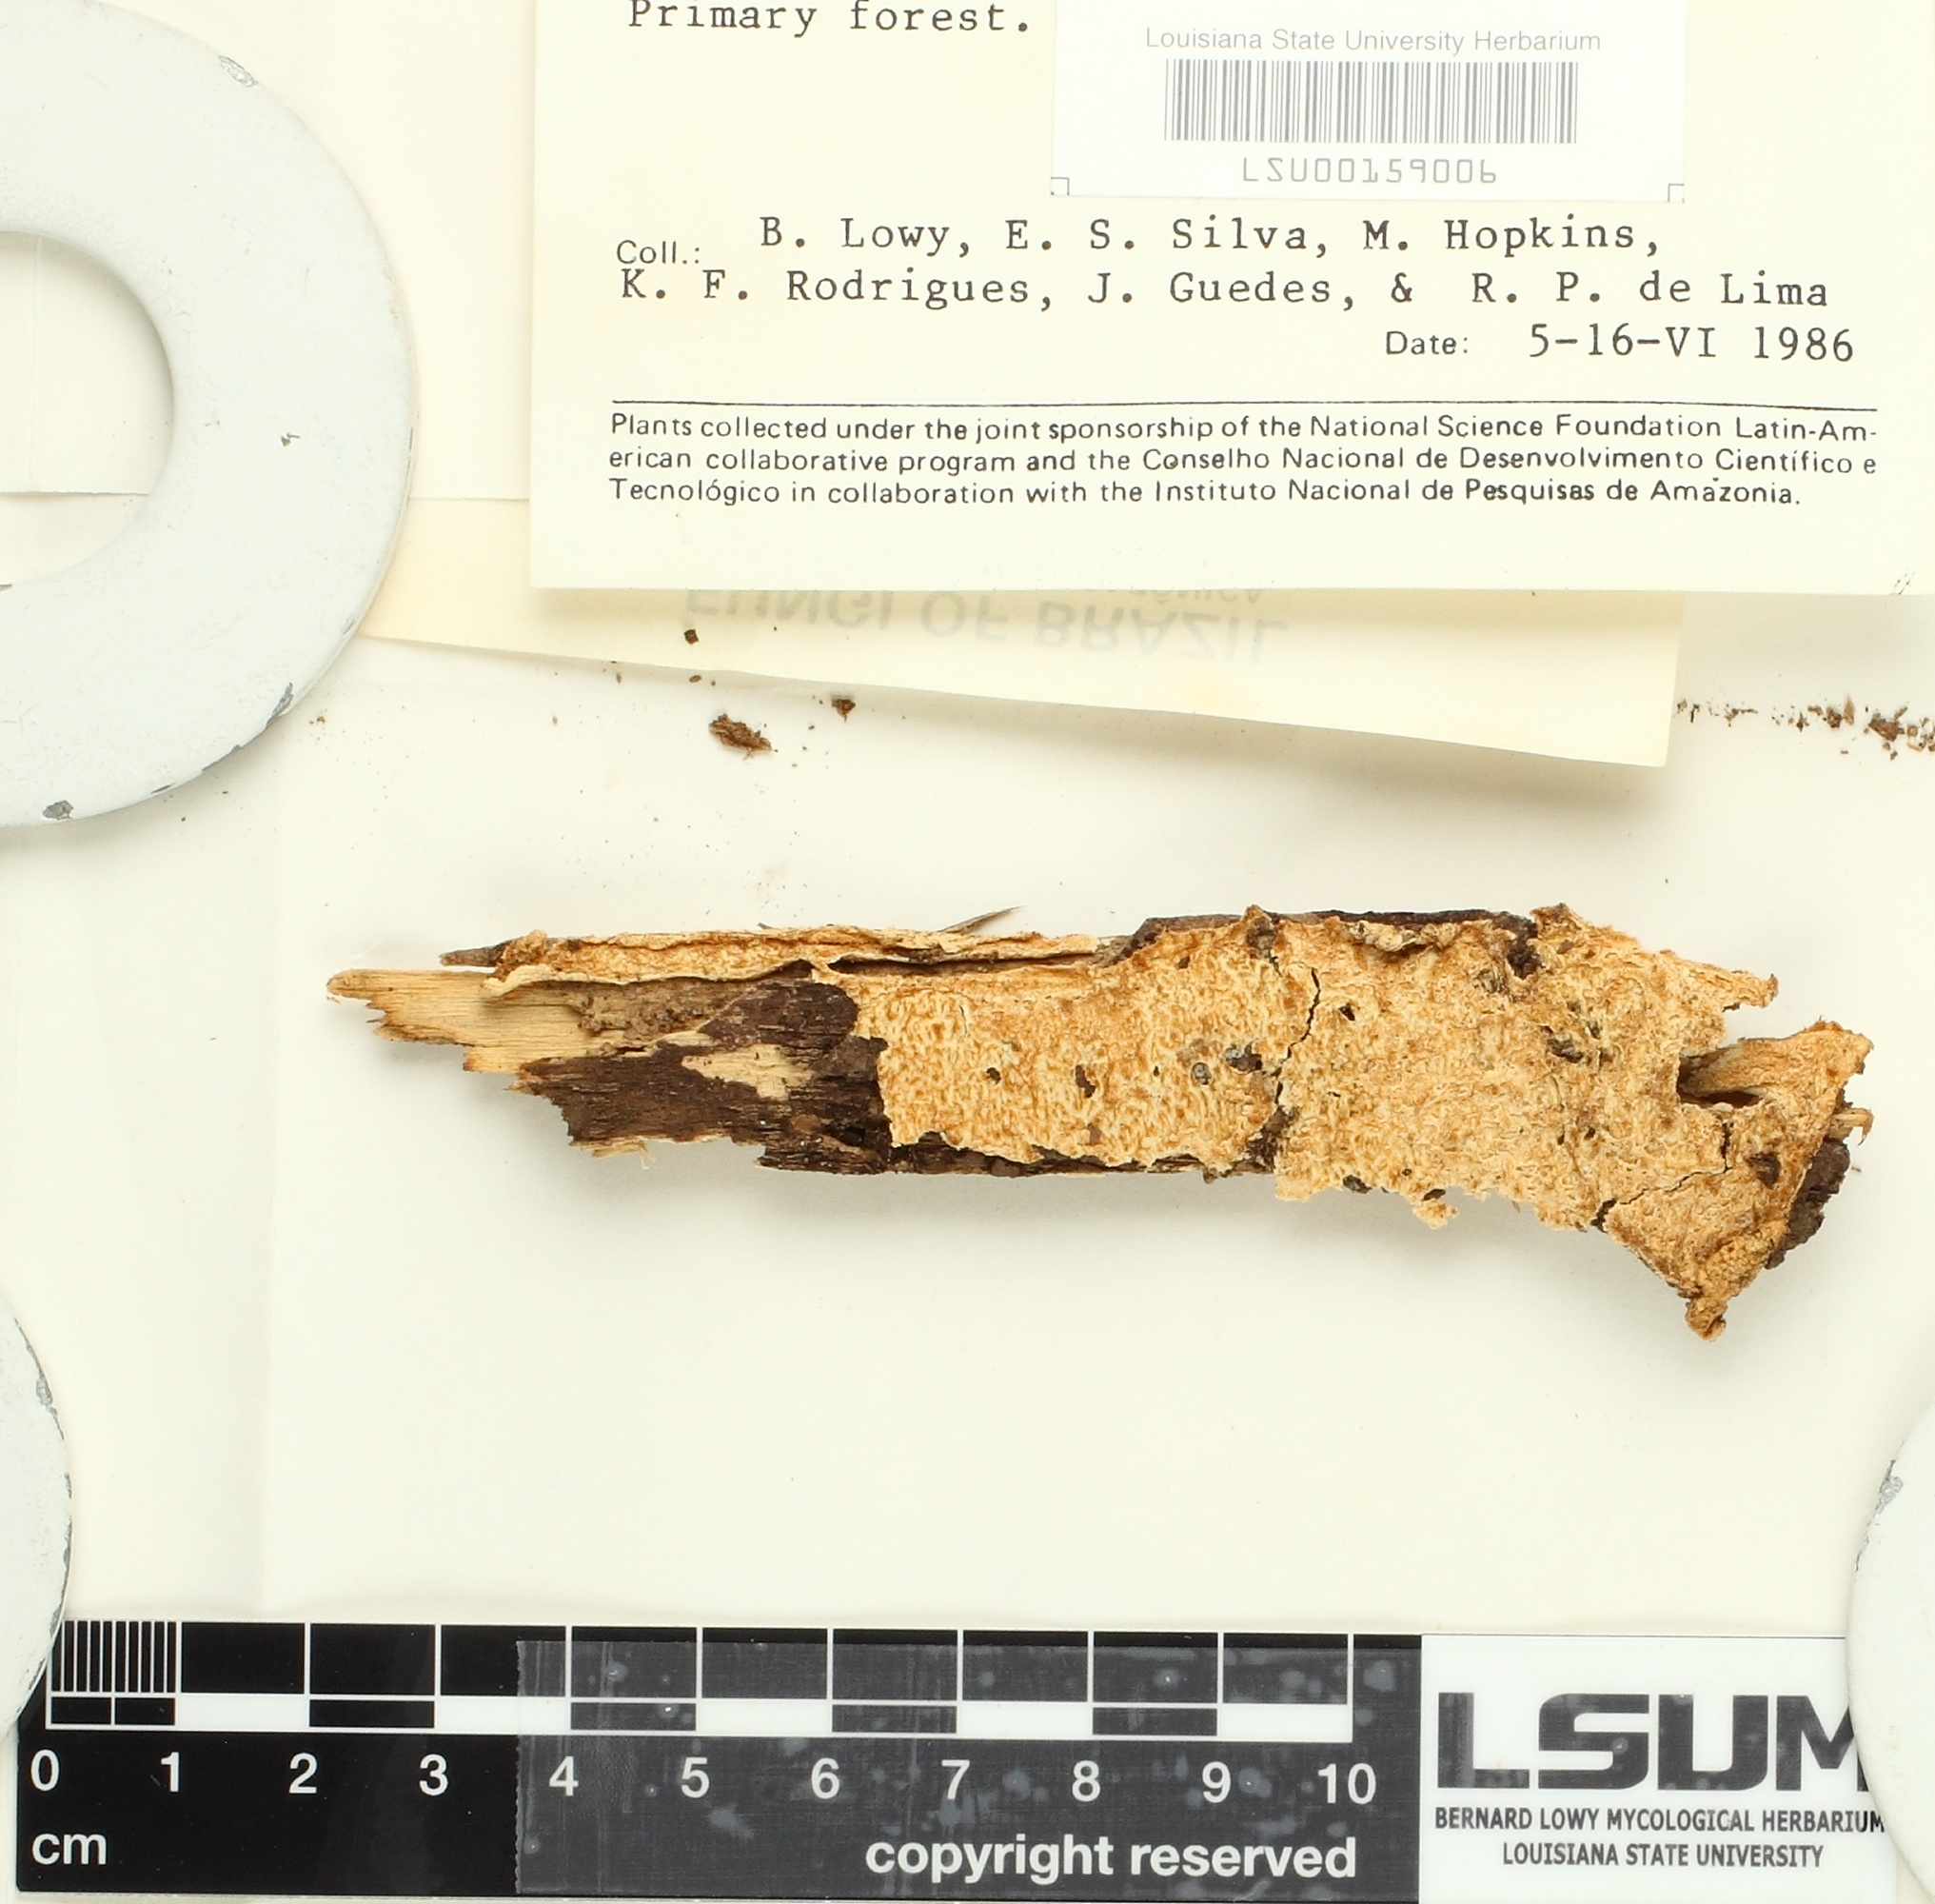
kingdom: Fungi
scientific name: Fungi
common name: Fungi
